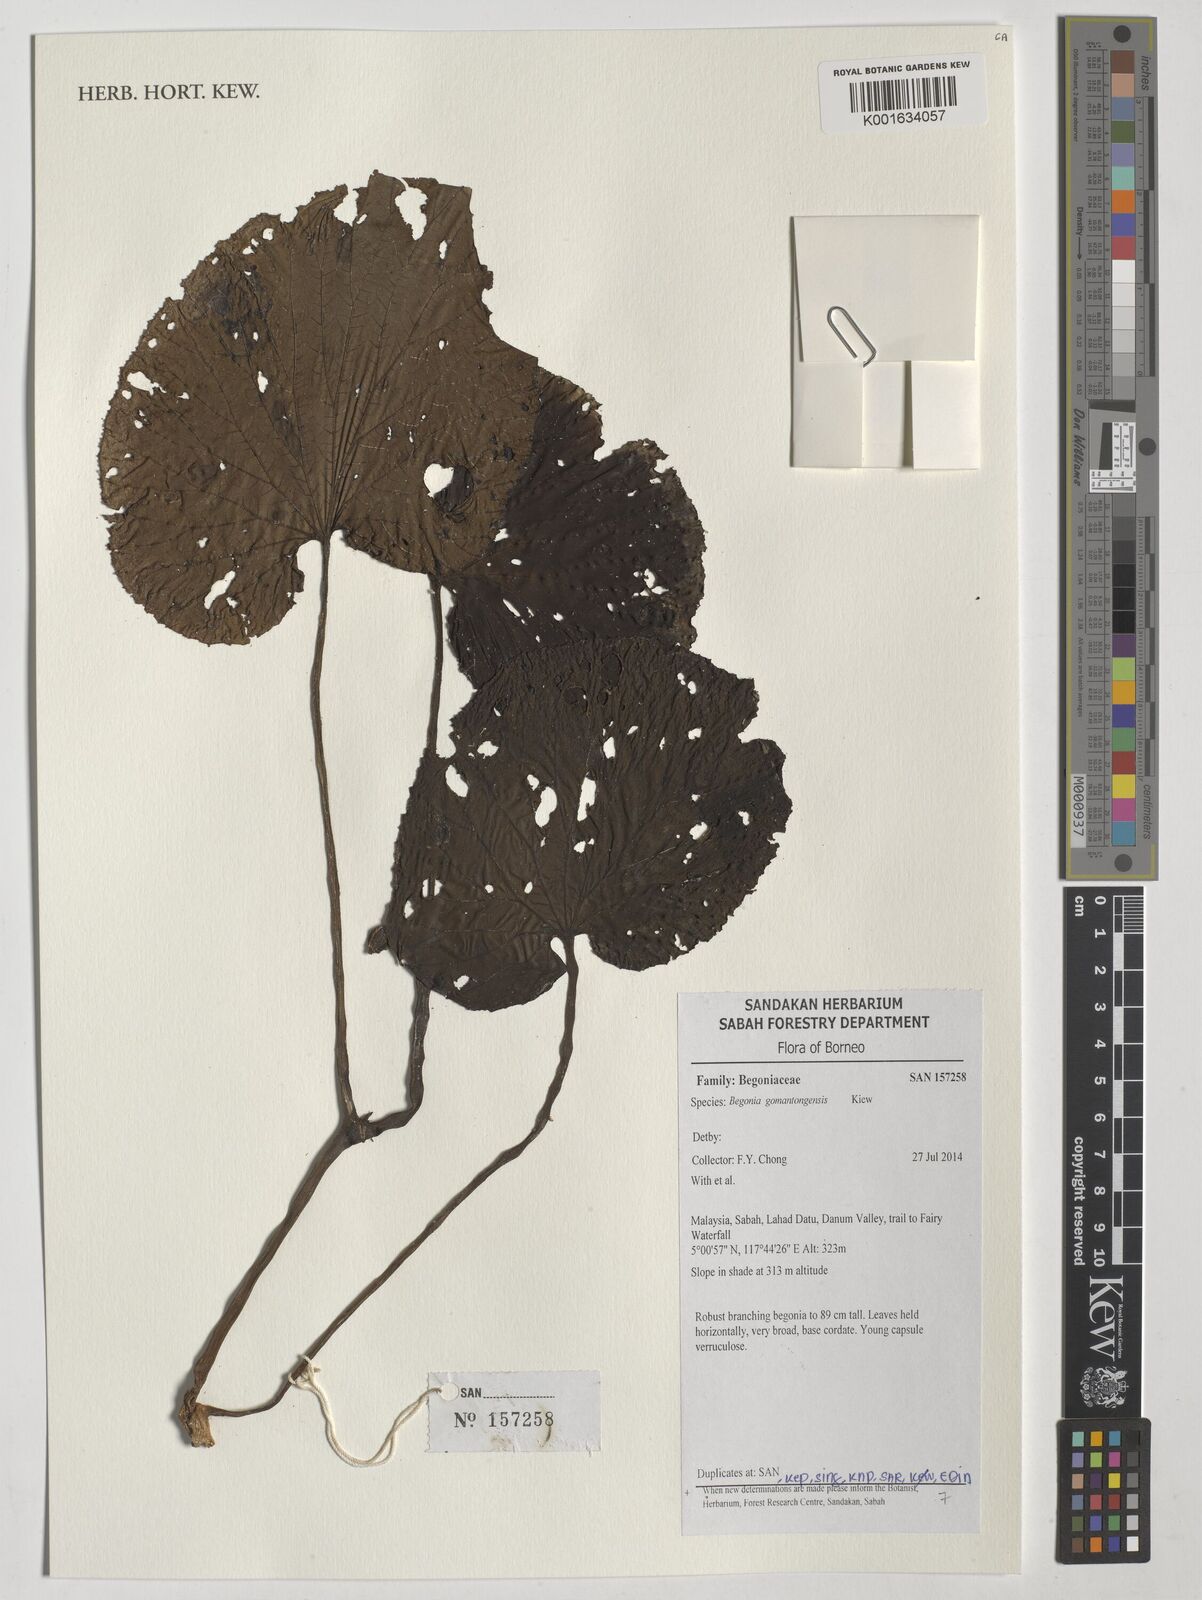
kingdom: Plantae
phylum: Tracheophyta
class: Magnoliopsida
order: Cucurbitales
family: Begoniaceae
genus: Begonia
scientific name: Begonia gomantongensis
